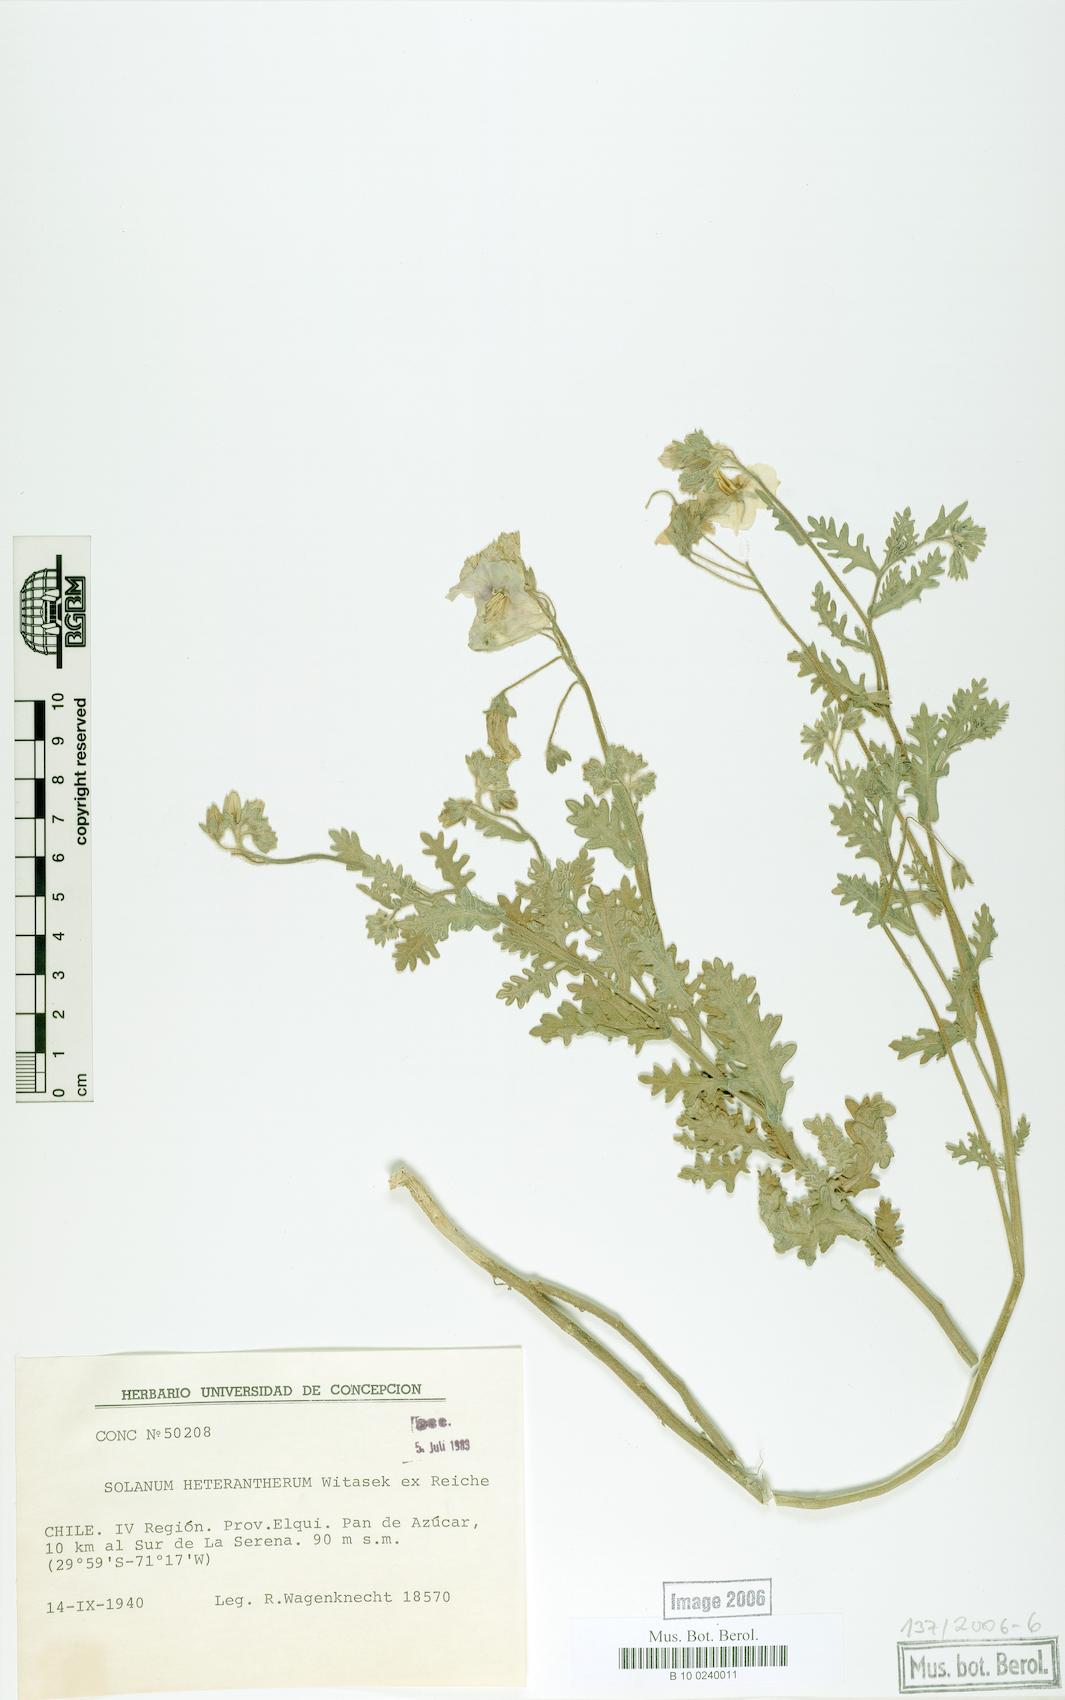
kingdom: Plantae
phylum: Tracheophyta
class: Magnoliopsida
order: Solanales
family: Solanaceae
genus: Solanum
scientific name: Solanum trinominum
